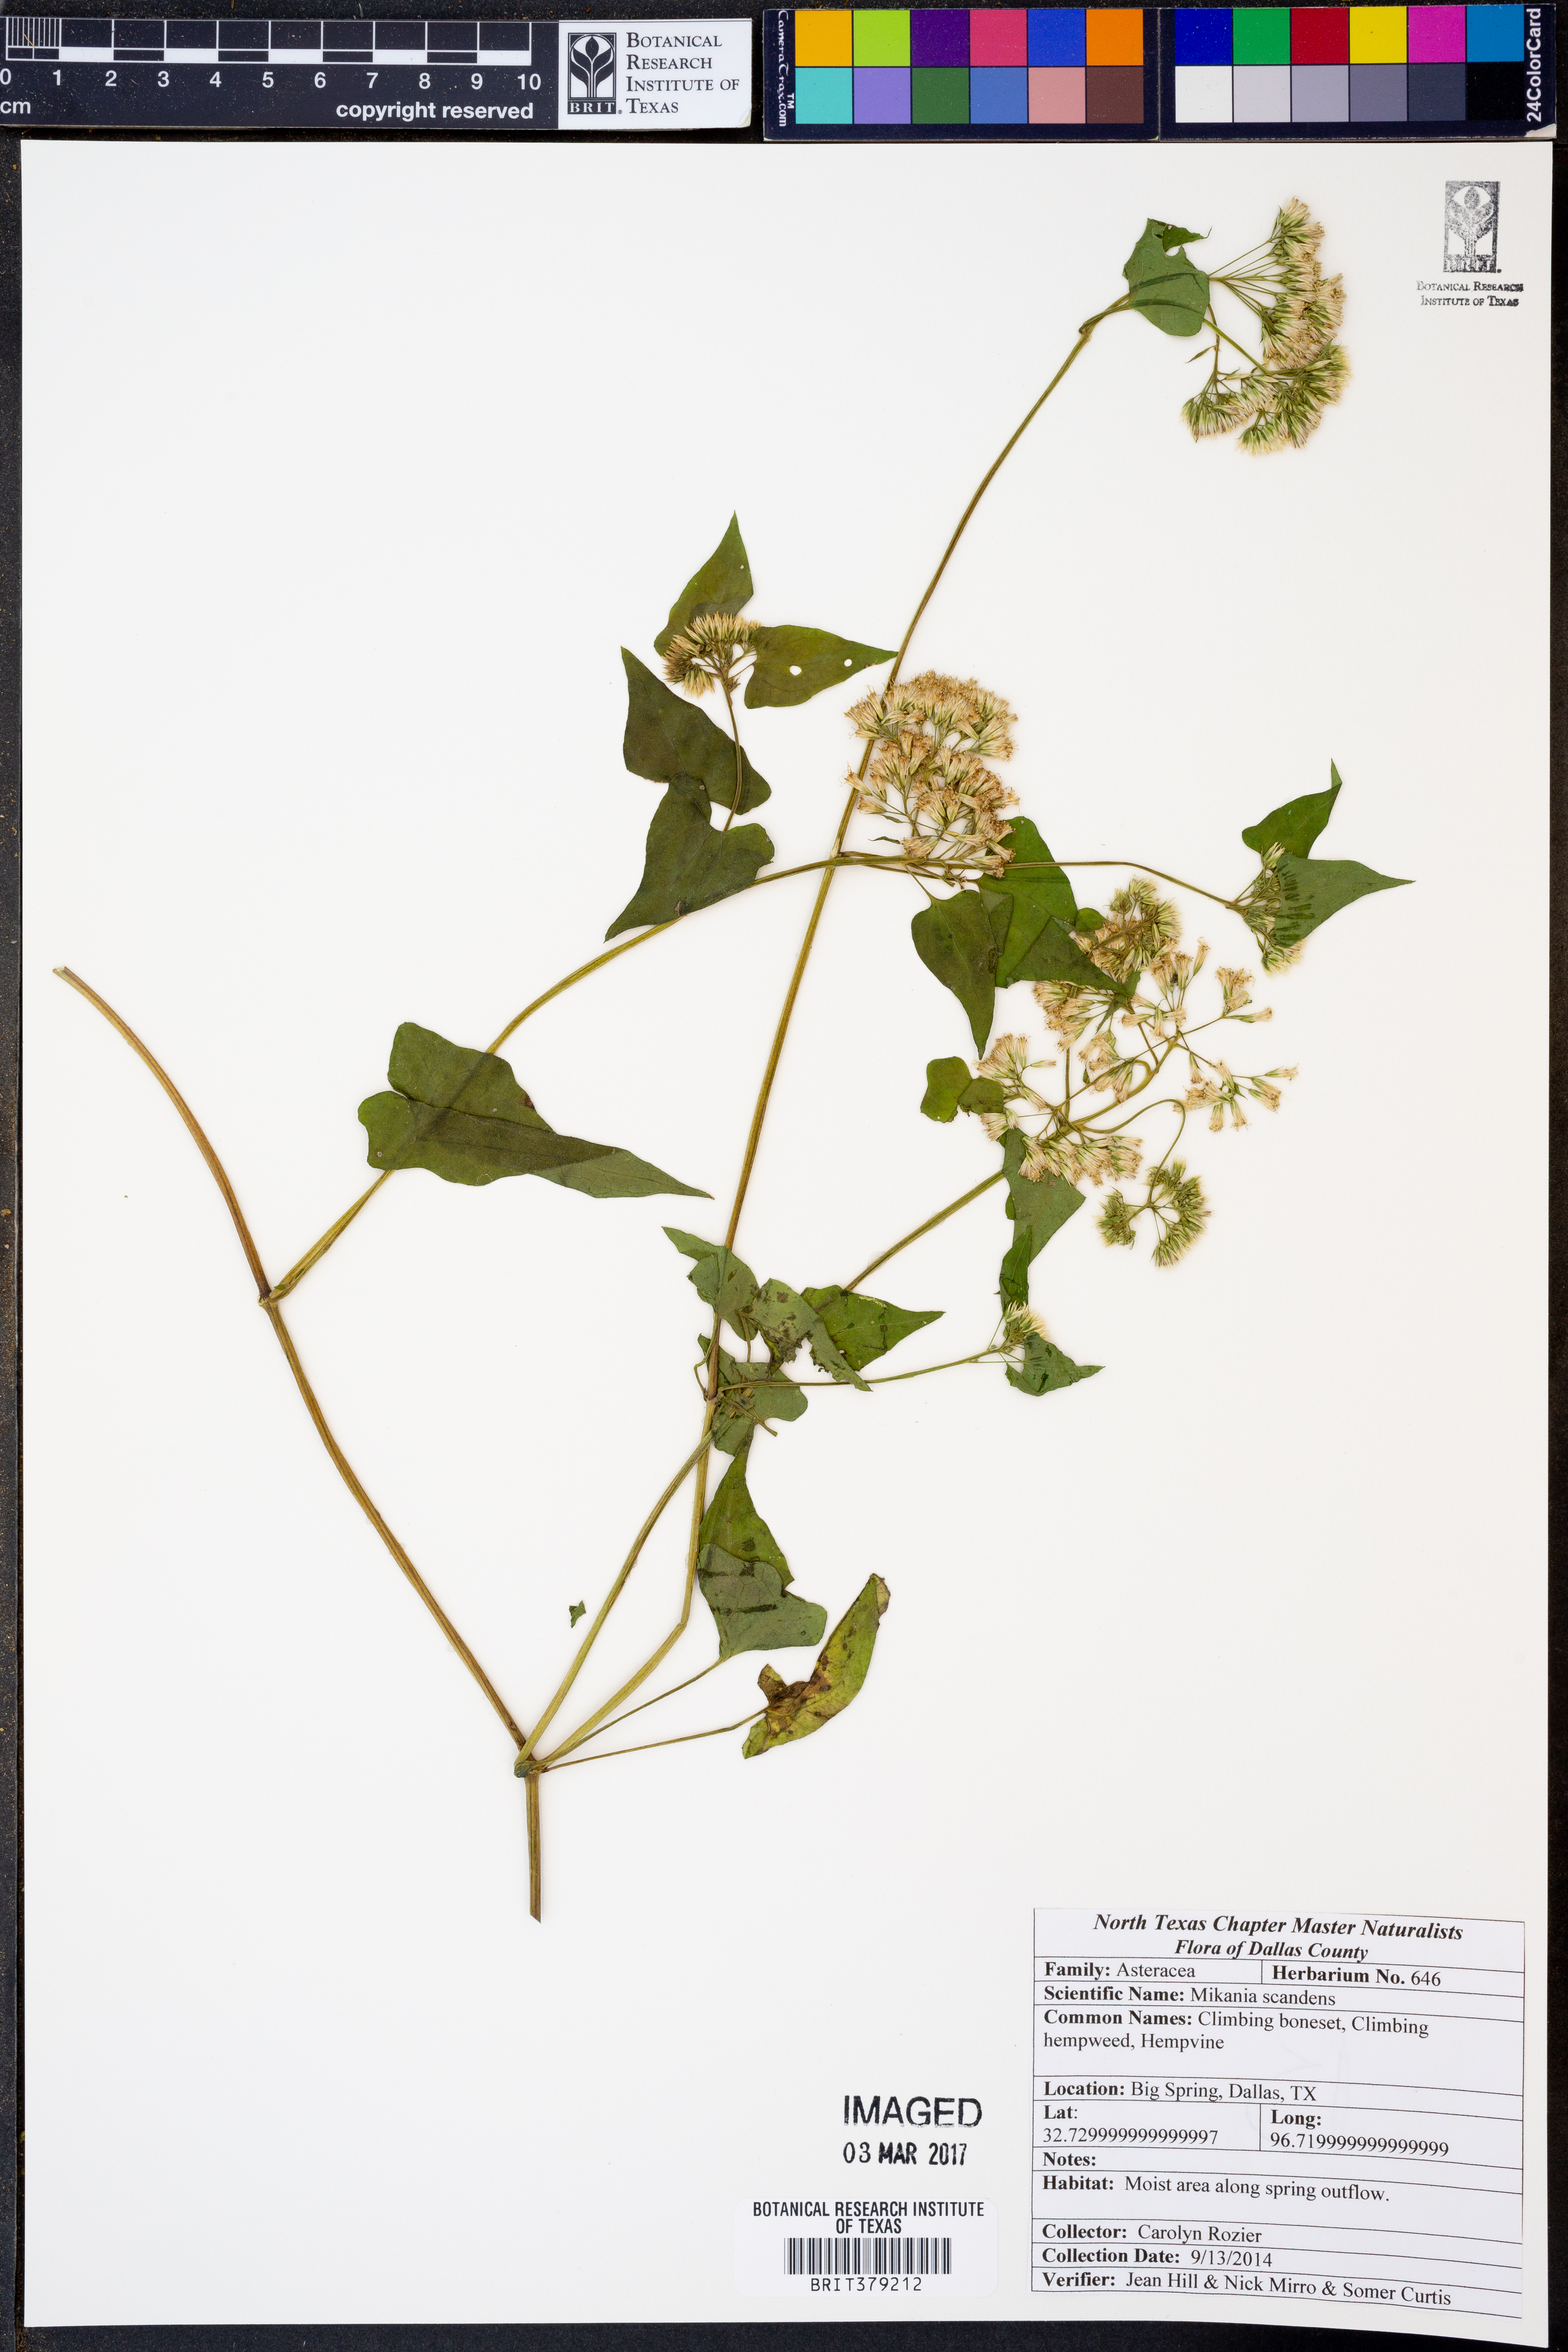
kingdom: Plantae
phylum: Tracheophyta
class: Magnoliopsida
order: Asterales
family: Asteraceae
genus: Mikania
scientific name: Mikania scandens
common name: Climbing hempvine
